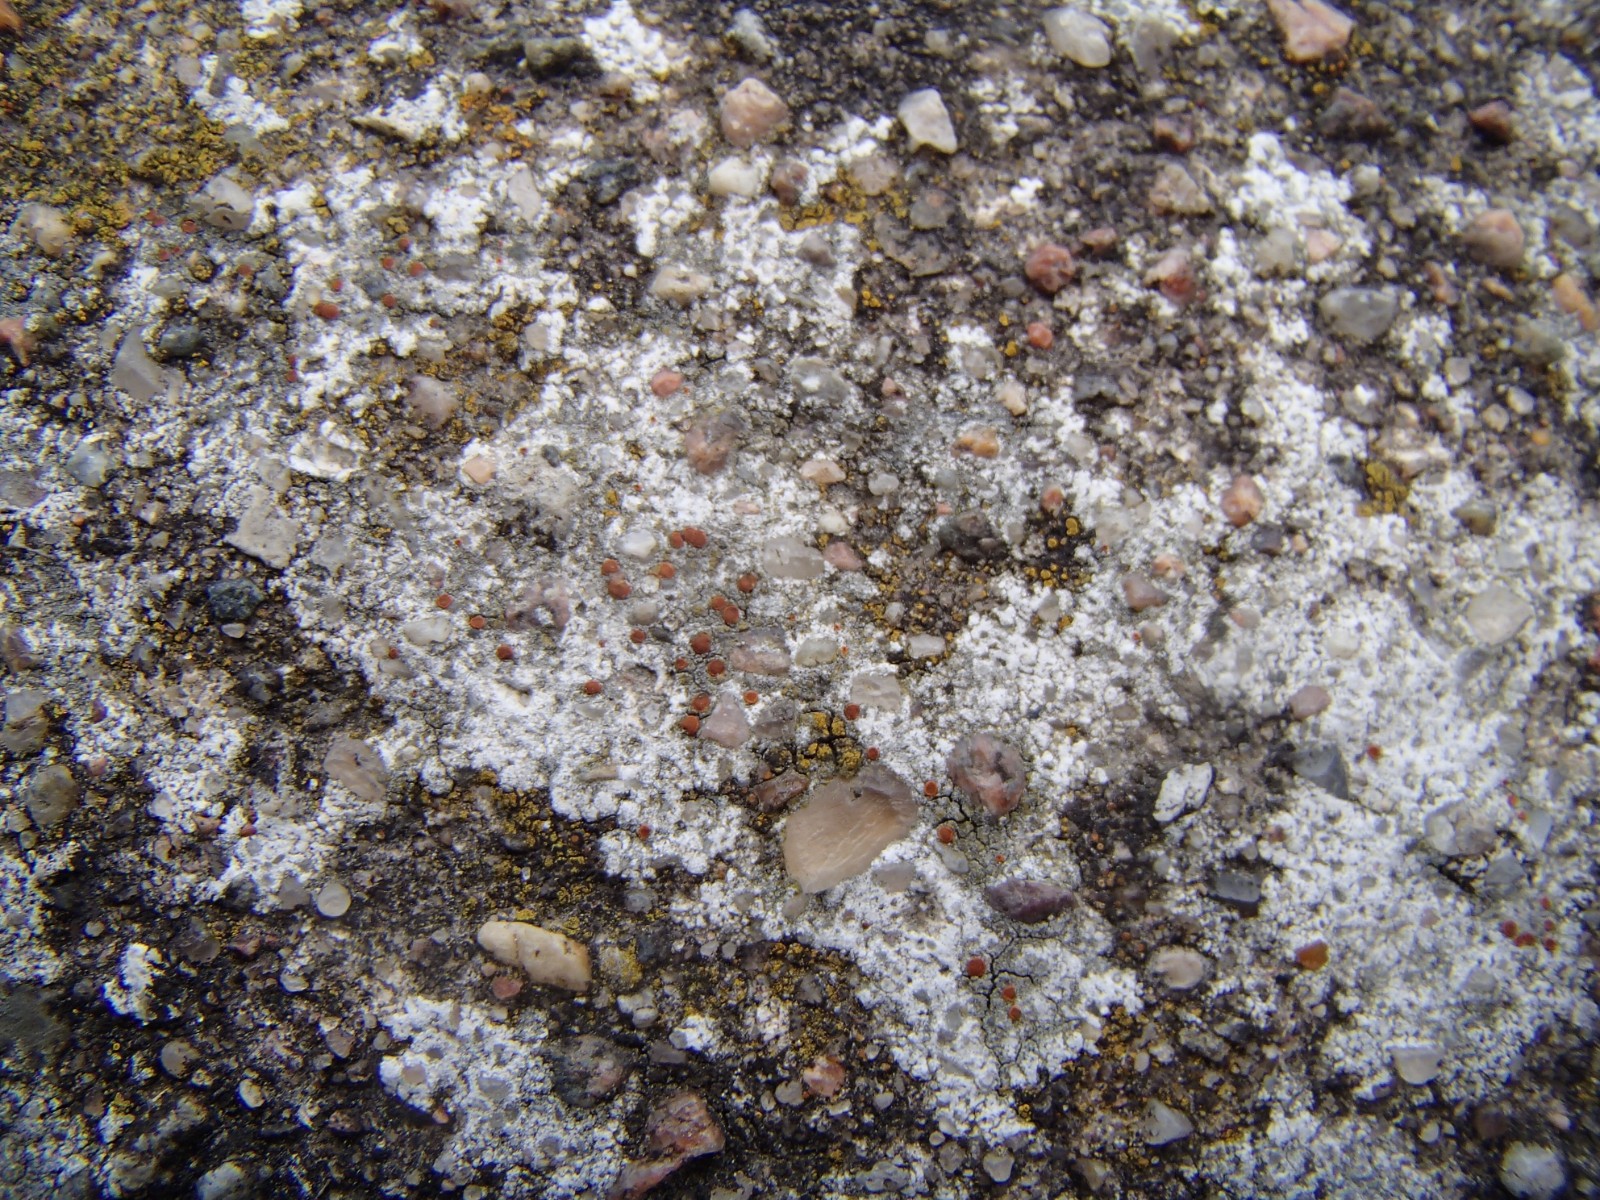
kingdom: Fungi
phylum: Ascomycota
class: Lecanoromycetes
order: Teloschistales
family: Teloschistaceae
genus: Blastenia
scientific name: Blastenia crenularia
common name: pyntelig orangelav
